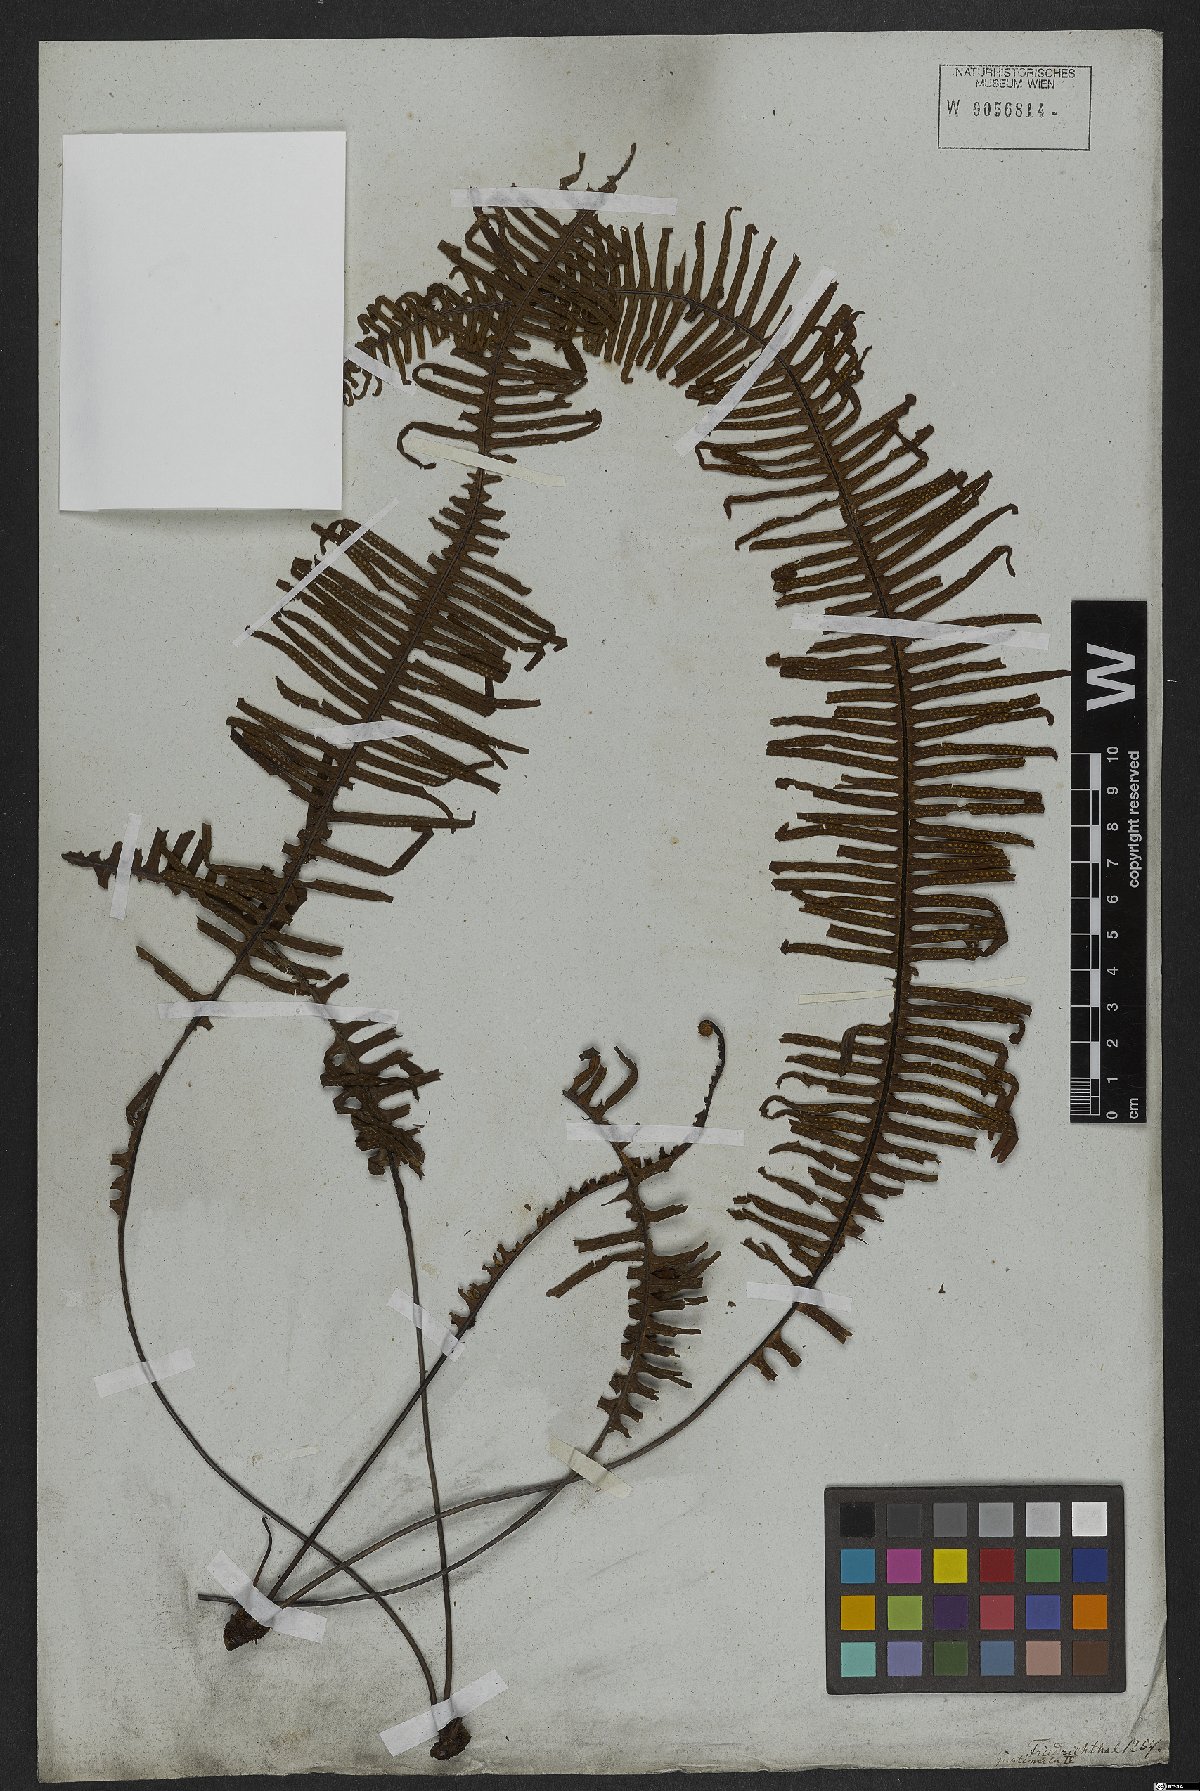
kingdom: Plantae
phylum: Tracheophyta
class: Polypodiopsida
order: Polypodiales
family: Polypodiaceae
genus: Polypodium
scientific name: Polypodium
